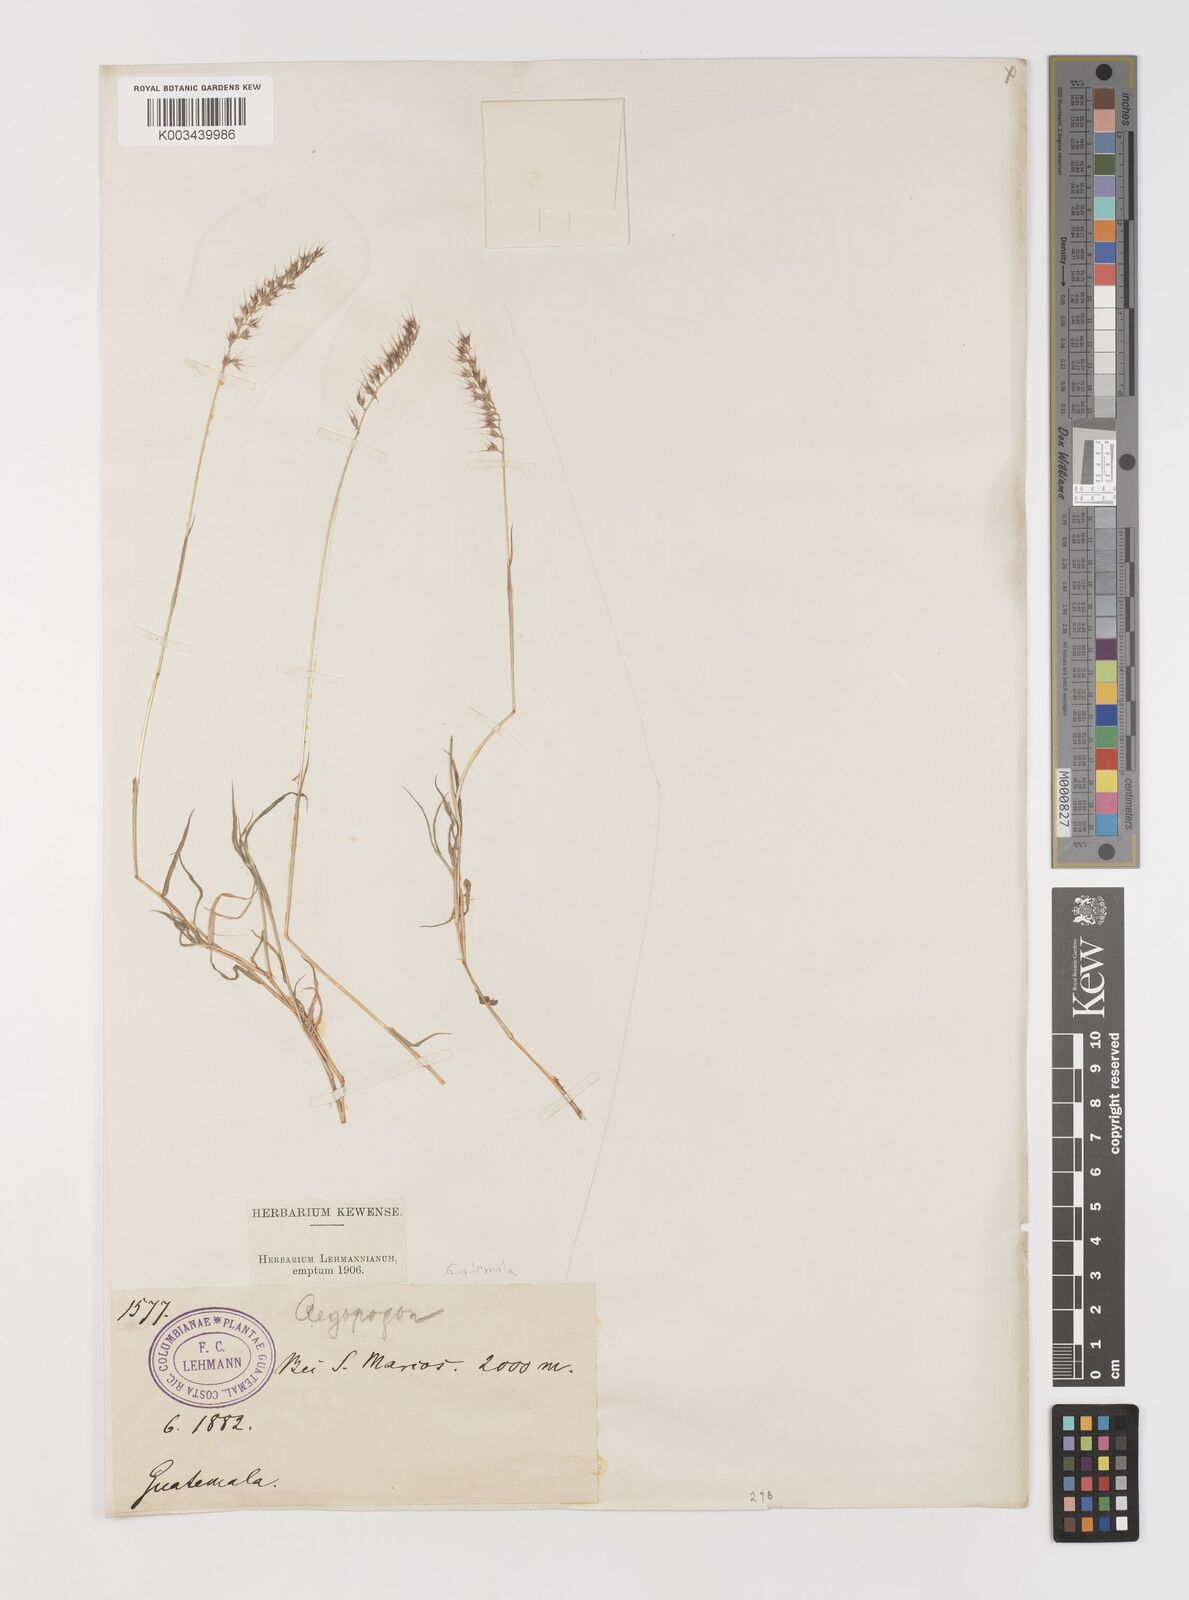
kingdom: Plantae
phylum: Tracheophyta
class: Liliopsida
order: Poales
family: Poaceae
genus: Muhlenbergia
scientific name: Muhlenbergia cenchroides
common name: Relaxgrass
